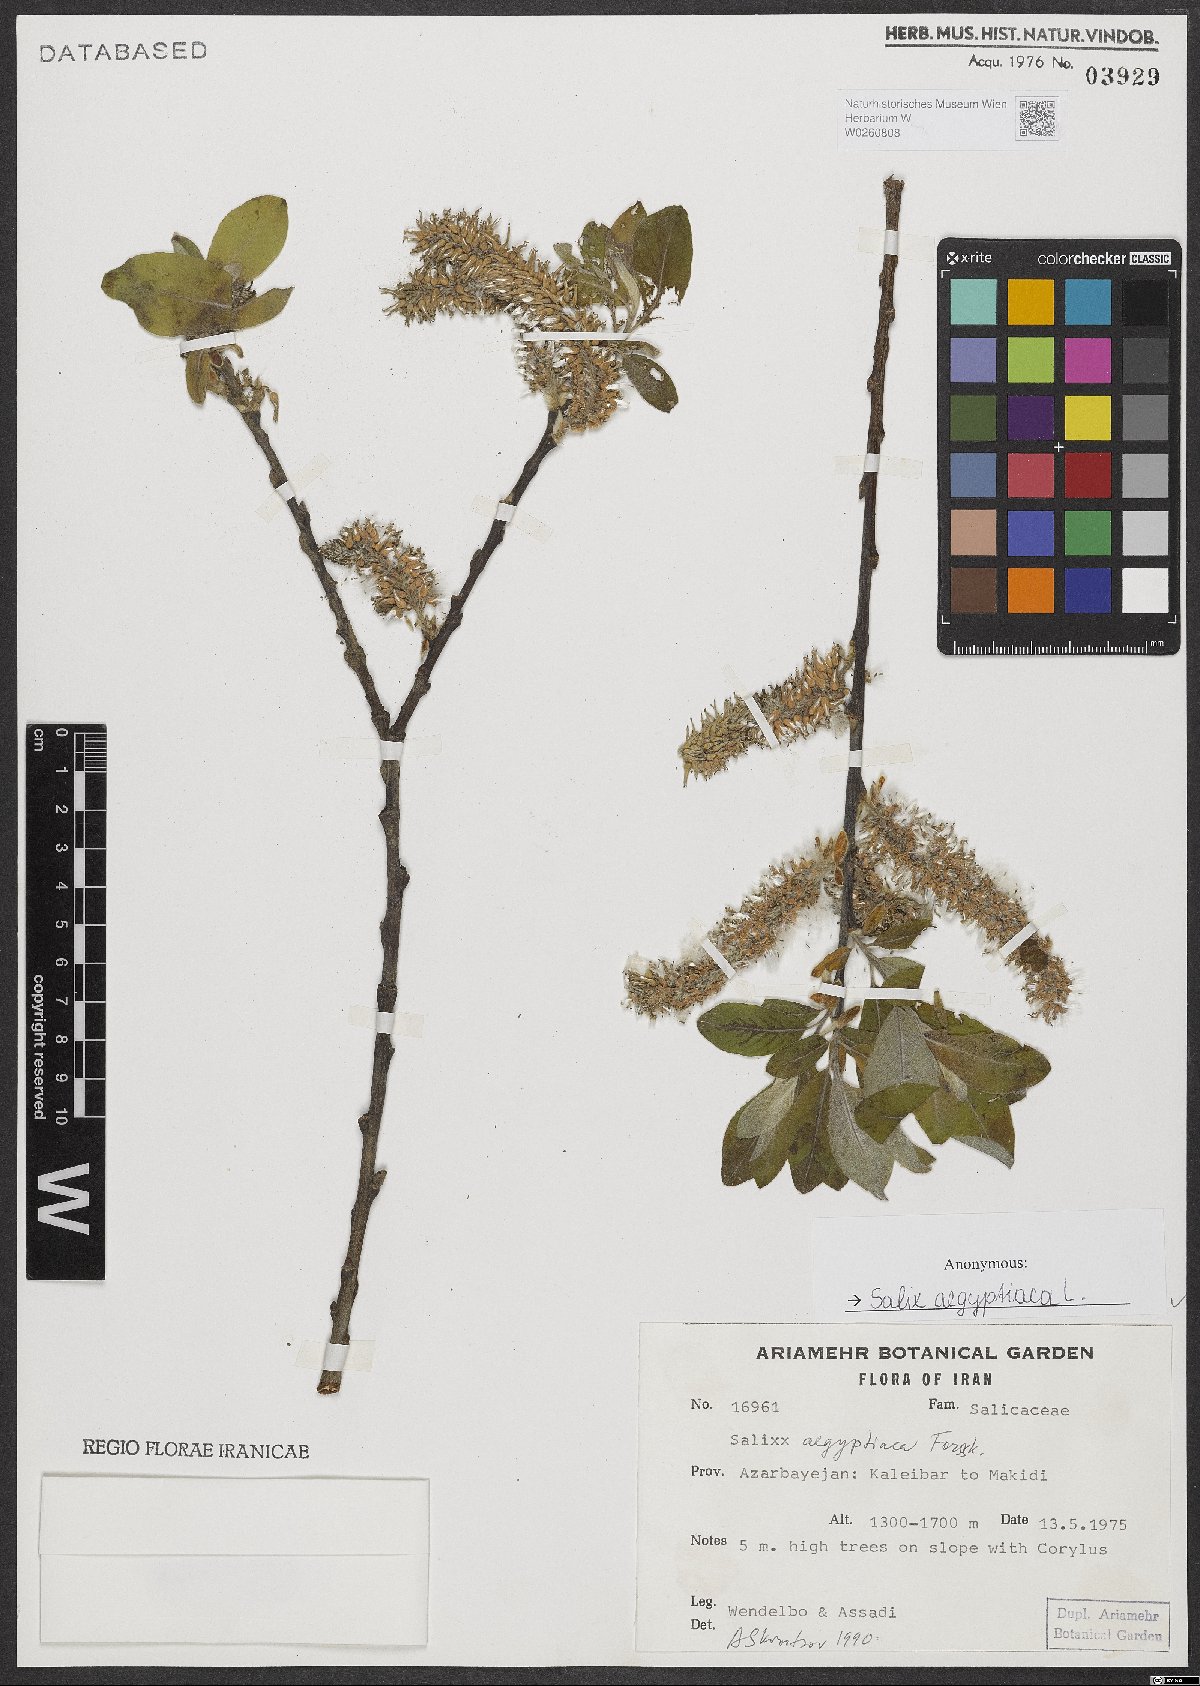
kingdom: Plantae
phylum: Tracheophyta
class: Magnoliopsida
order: Malpighiales
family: Salicaceae
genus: Salix
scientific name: Salix aegyptiaca
